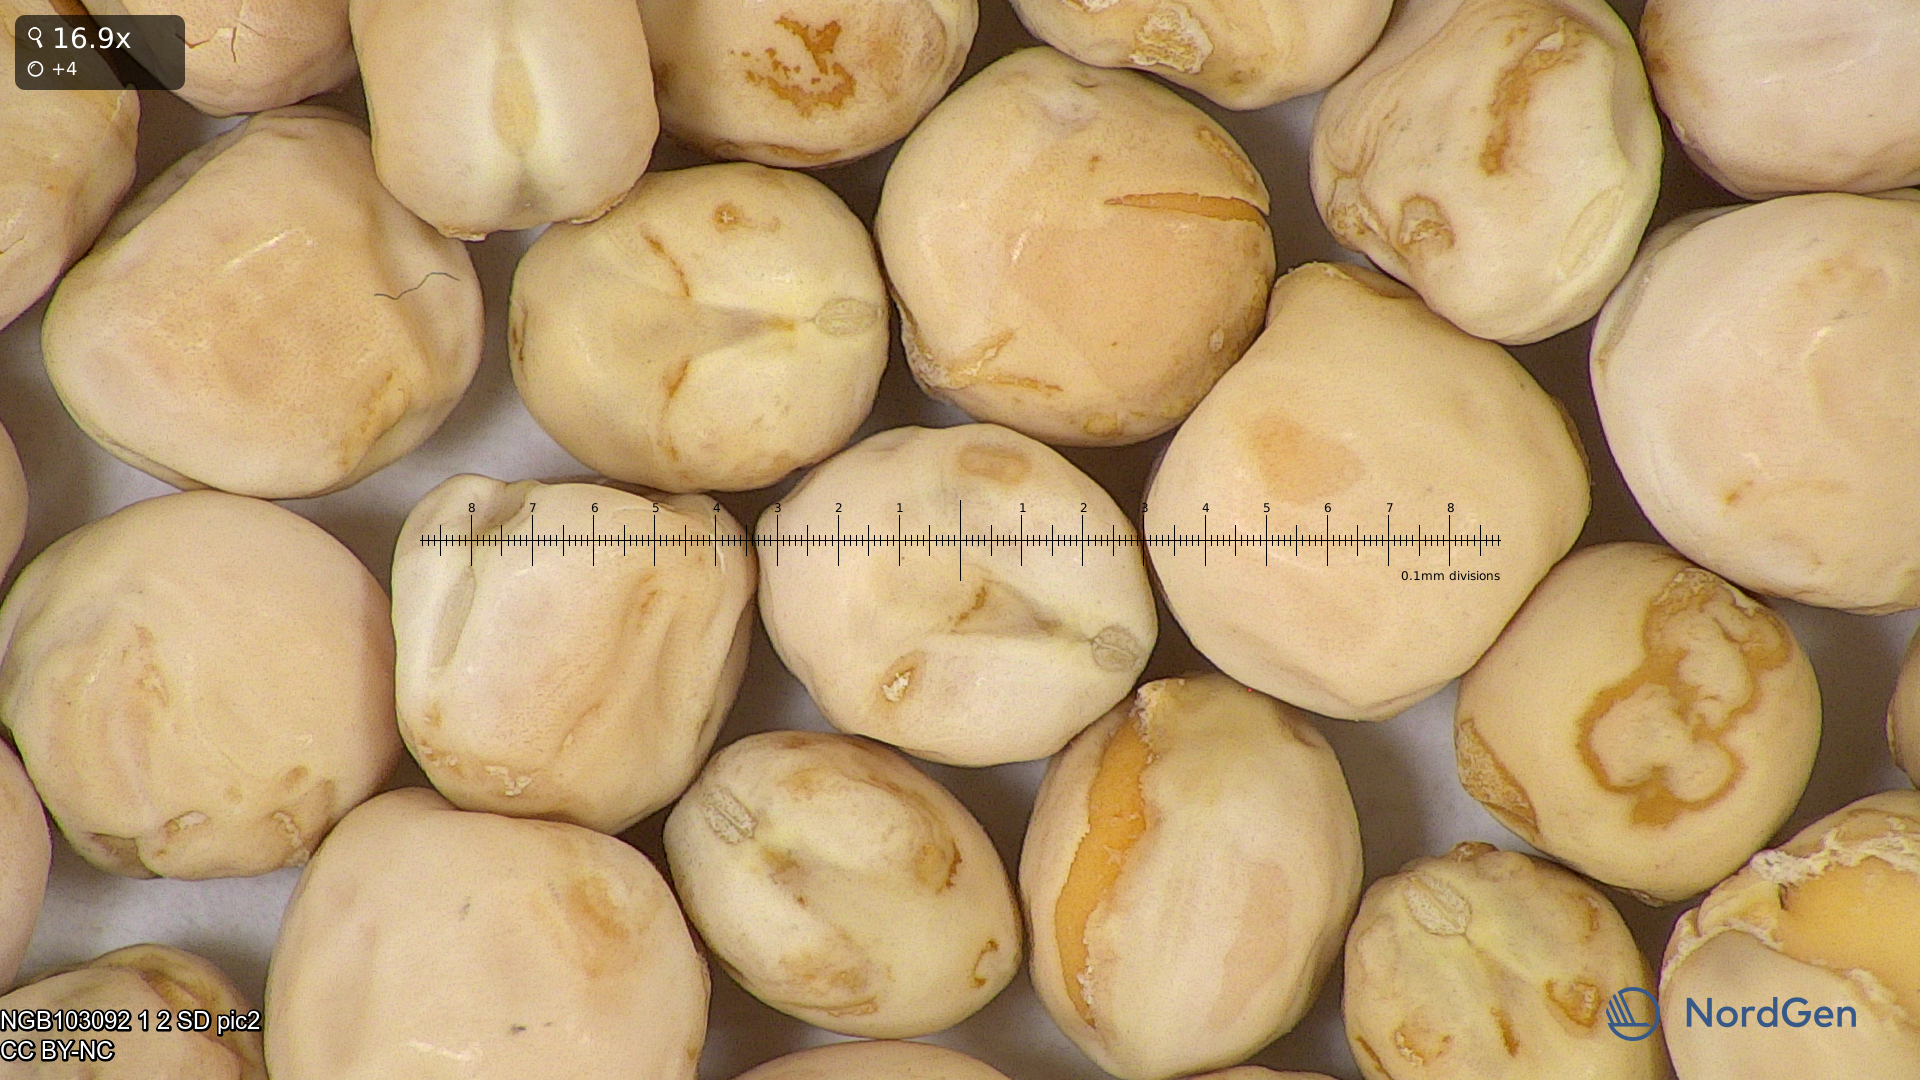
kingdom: Plantae
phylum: Tracheophyta
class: Magnoliopsida
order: Fabales
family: Fabaceae
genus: Lathyrus
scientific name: Lathyrus oleraceus
